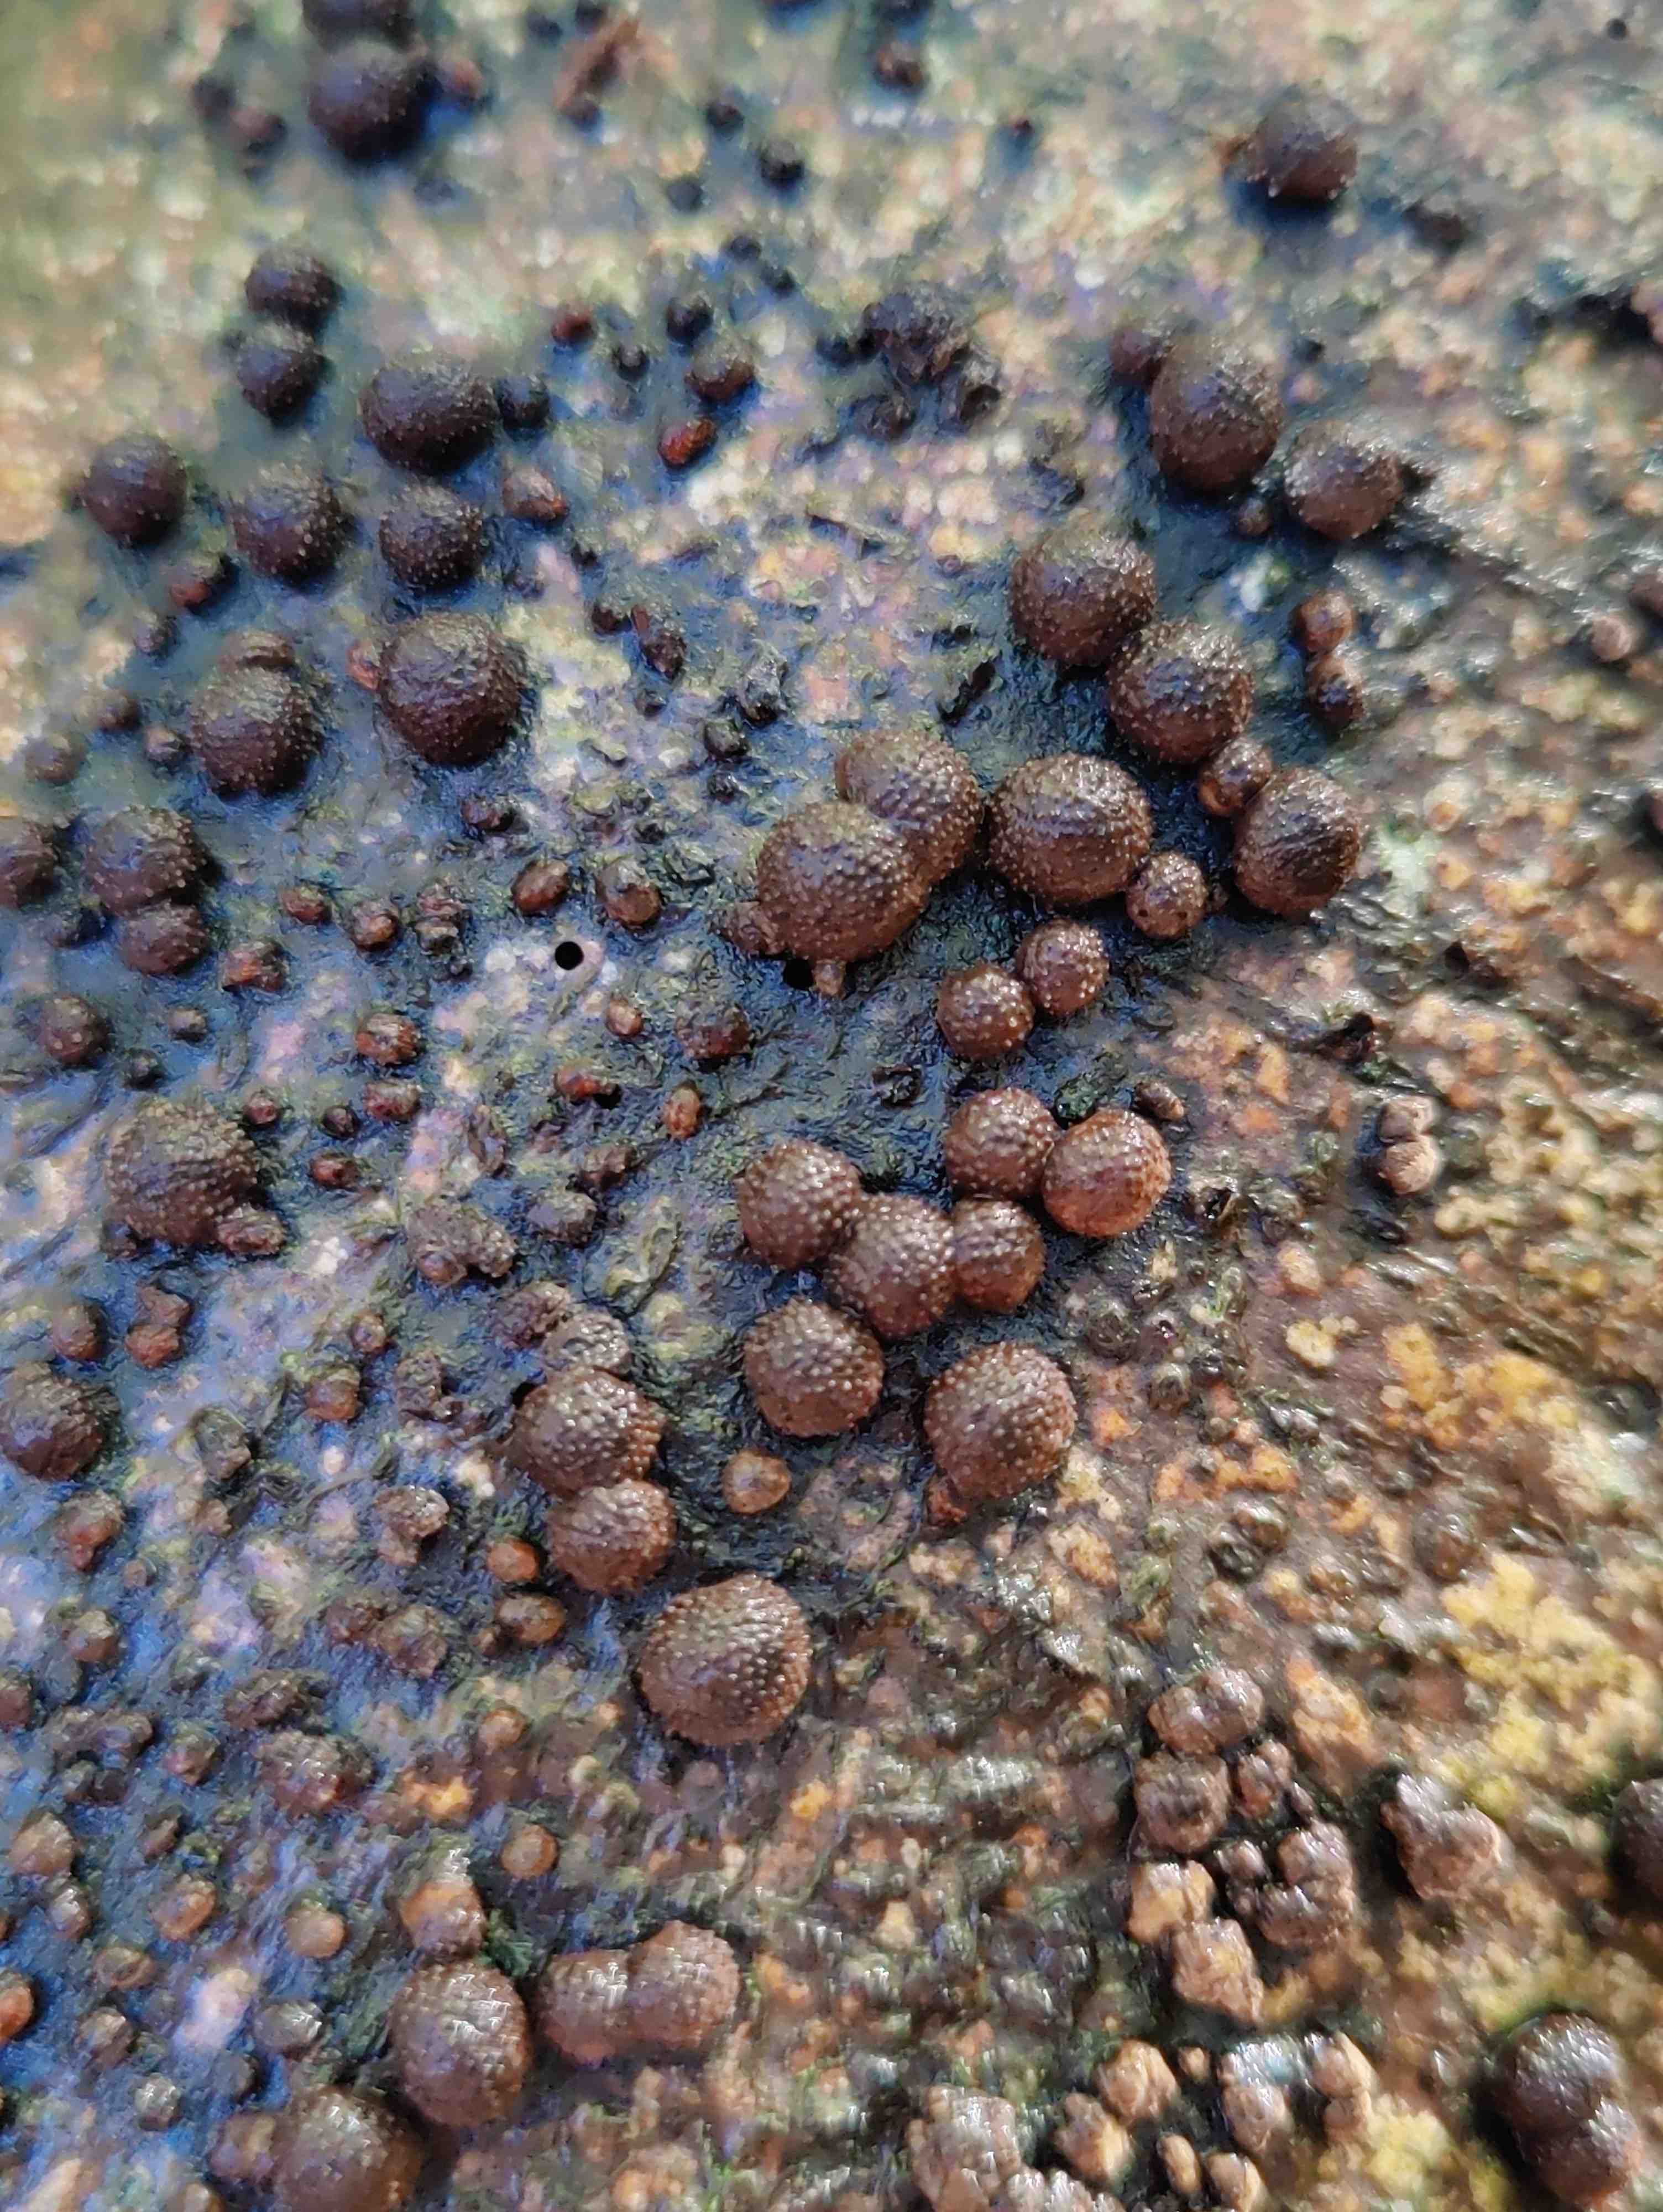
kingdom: Fungi
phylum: Ascomycota
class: Sordariomycetes
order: Xylariales
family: Hypoxylaceae
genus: Hypoxylon
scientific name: Hypoxylon fragiforme
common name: kuljordbær
